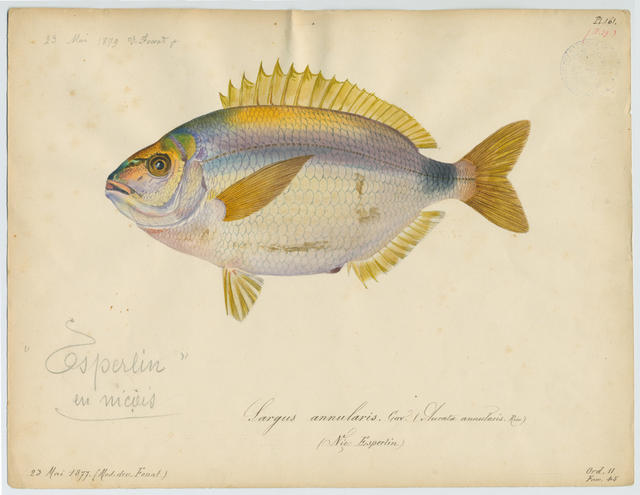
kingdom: Animalia
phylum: Chordata
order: Perciformes
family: Sparidae
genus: Diplodus
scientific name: Diplodus vulgaris
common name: Common two-banded seabream
